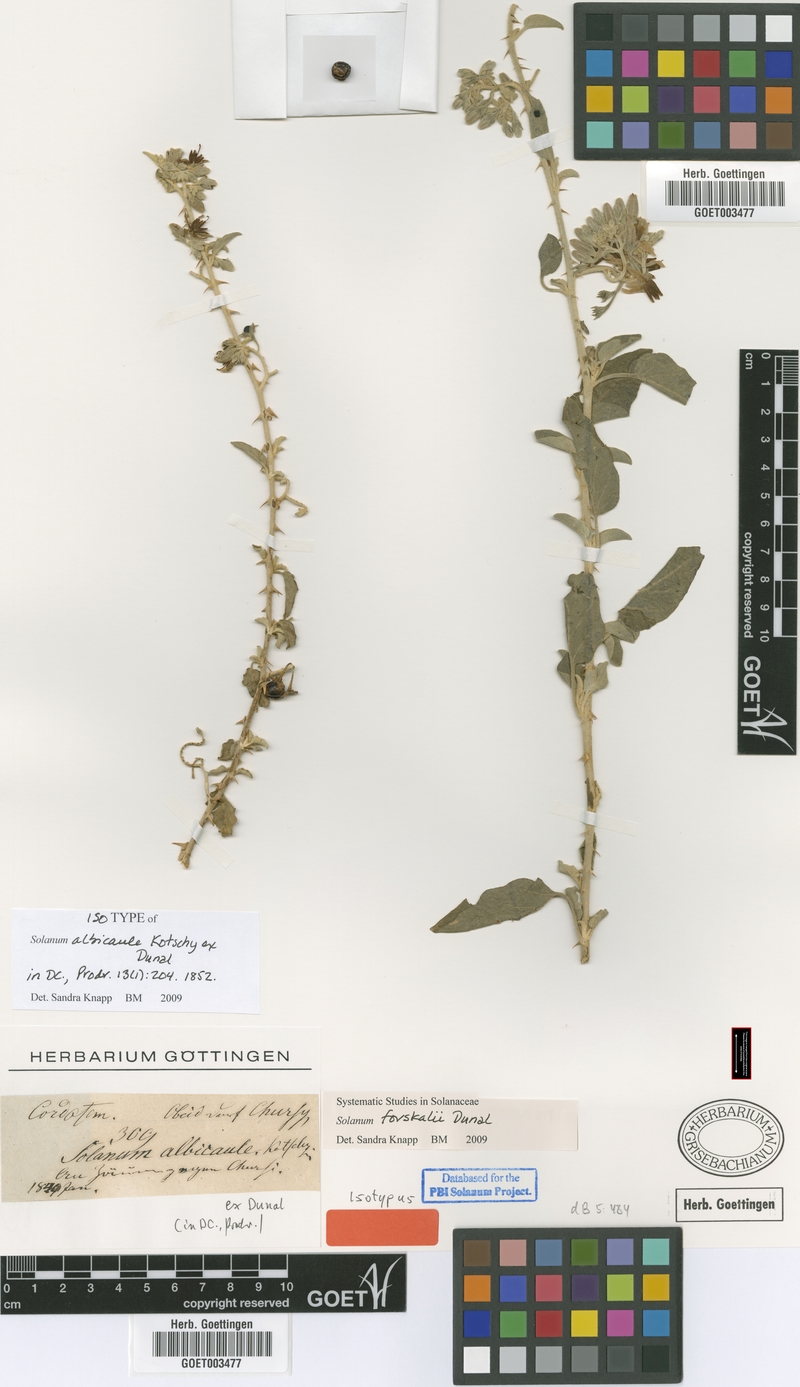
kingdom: Plantae
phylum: Tracheophyta
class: Magnoliopsida
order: Solanales
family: Solanaceae
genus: Solanum
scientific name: Solanum forsskaolii
